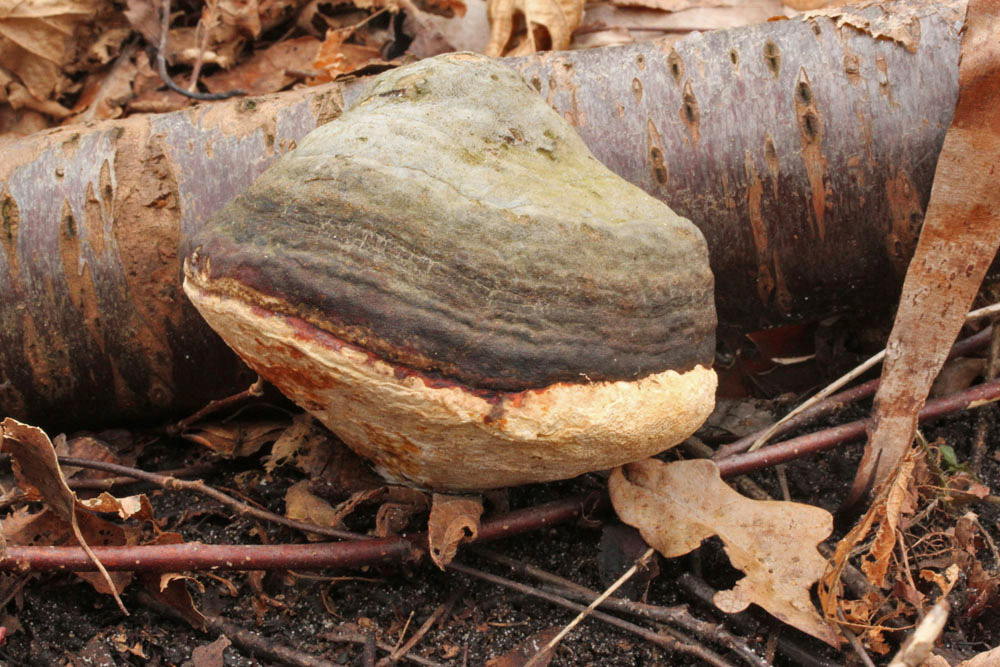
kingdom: Fungi
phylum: Basidiomycota
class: Agaricomycetes
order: Polyporales
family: Fomitopsidaceae
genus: Fomitopsis
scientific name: Fomitopsis pinicola
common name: randbæltet hovporesvamp
